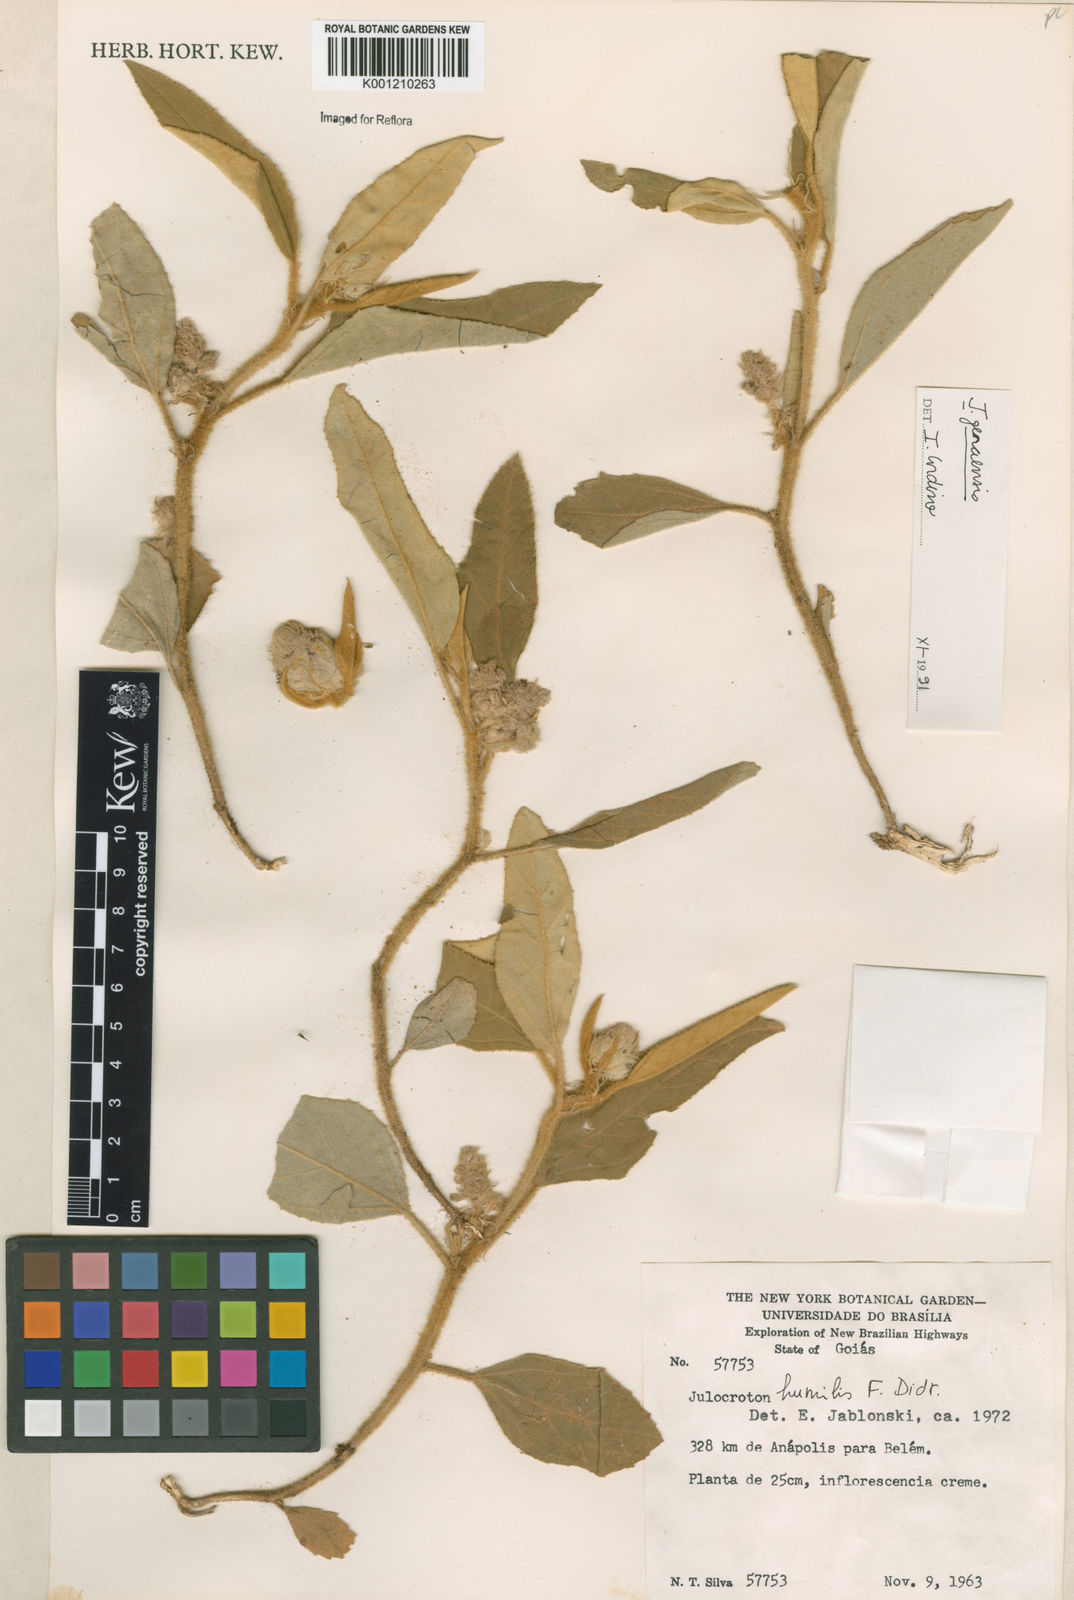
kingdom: Plantae
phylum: Tracheophyta
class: Magnoliopsida
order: Malpighiales
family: Euphorbiaceae
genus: Croton
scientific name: Croton solanaceus
